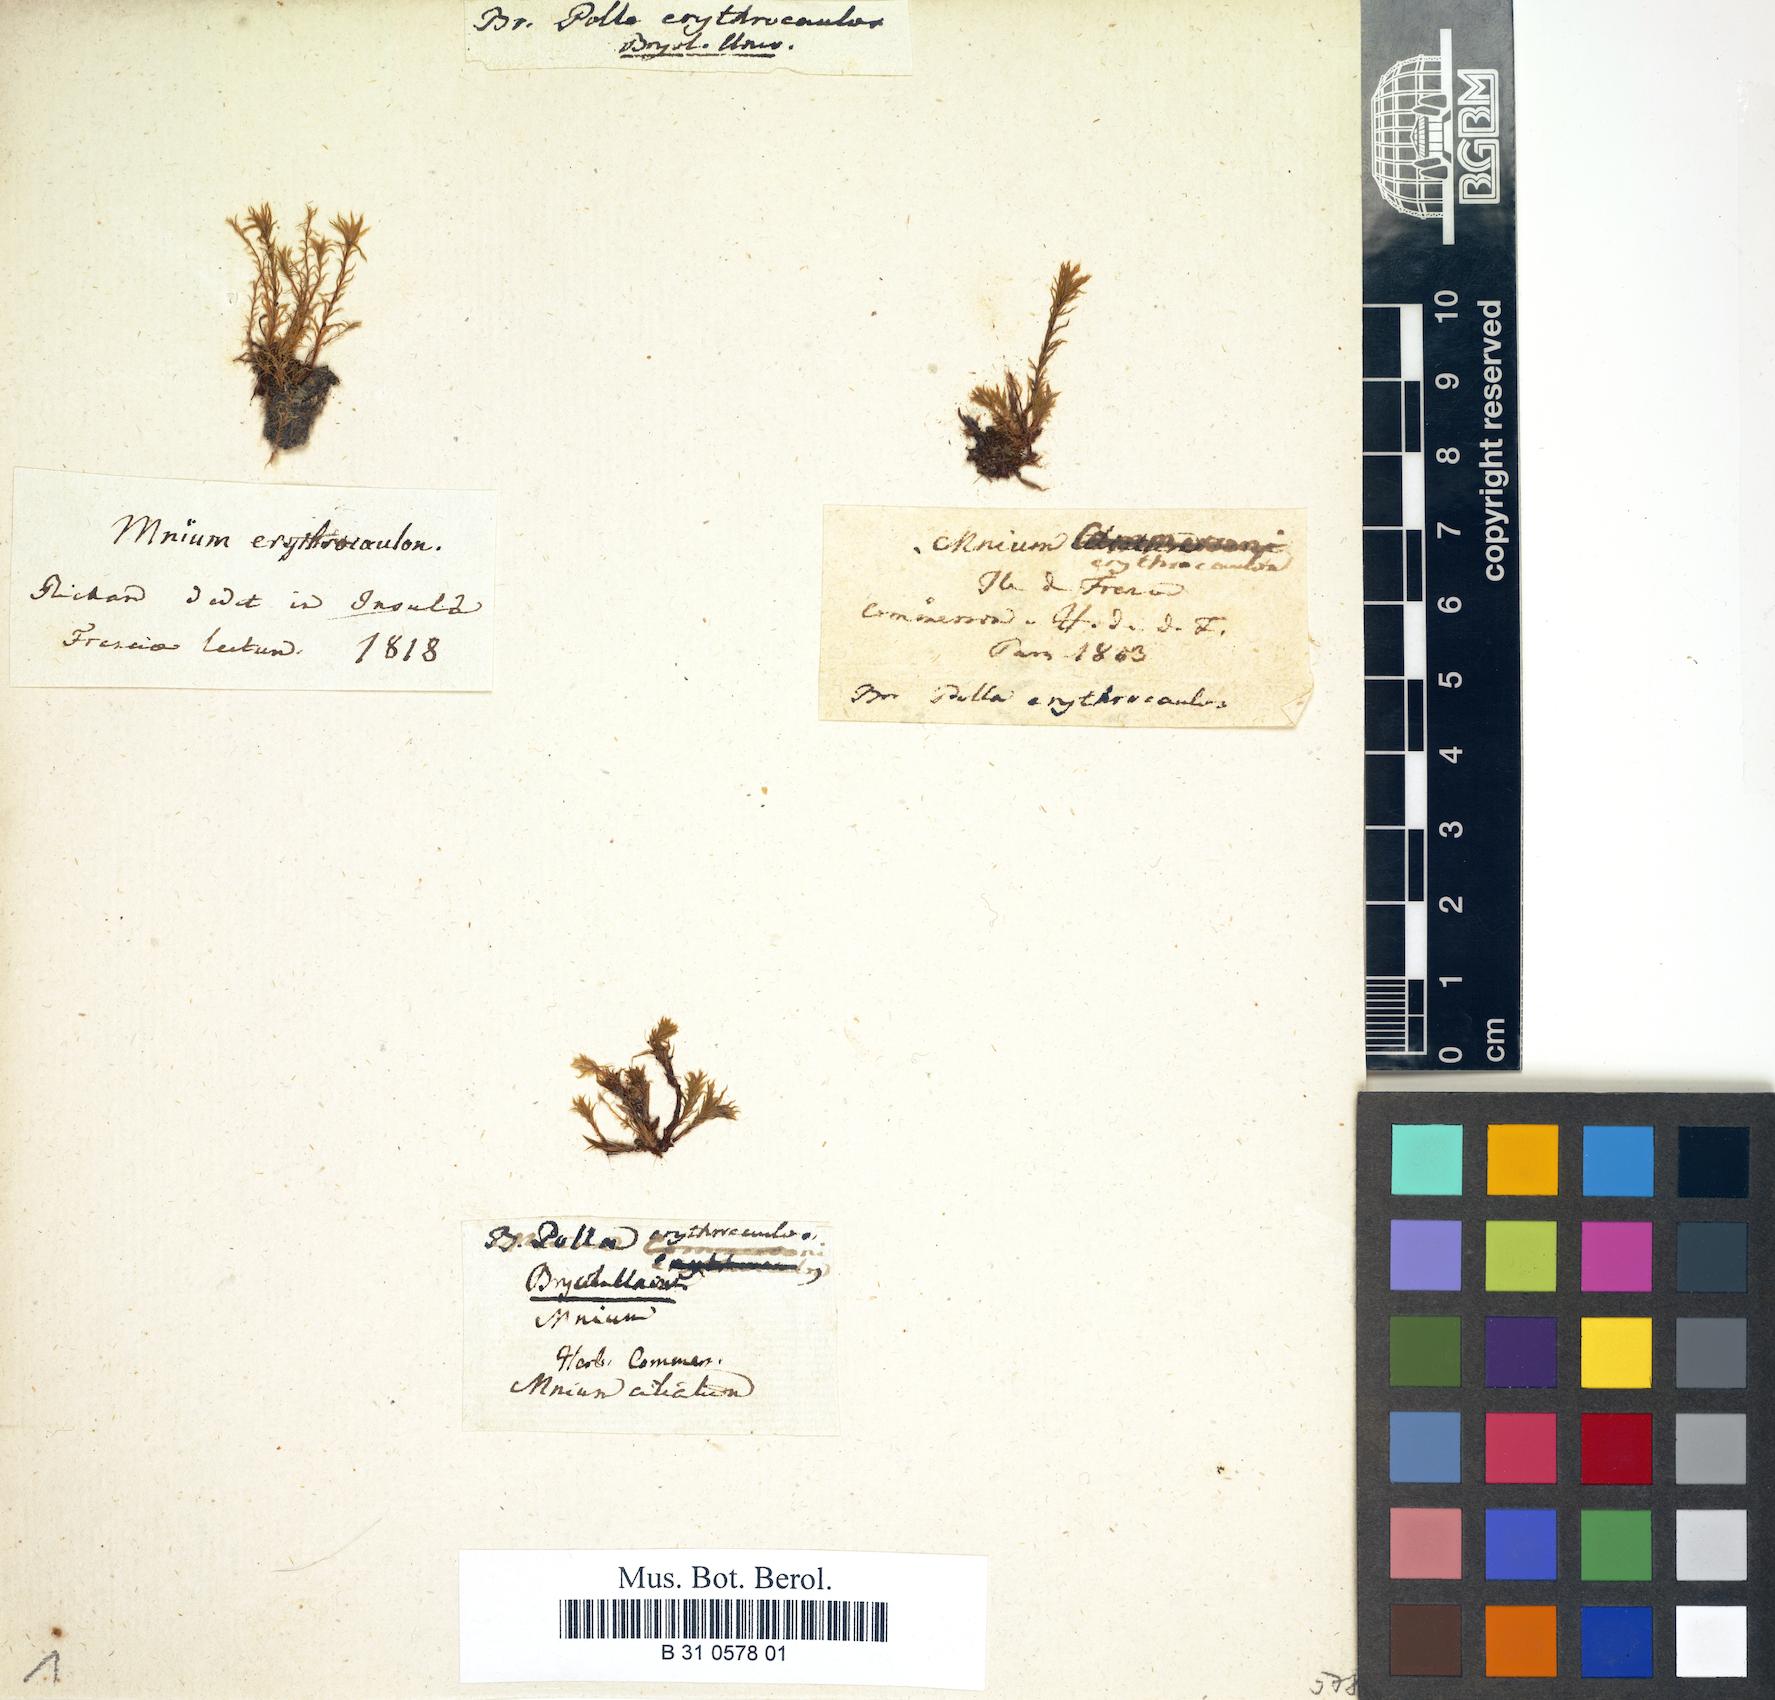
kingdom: Plantae
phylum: Bryophyta
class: Bryopsida
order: Bryales
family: Bryaceae
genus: Rosulabryum
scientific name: Rosulabryum erythrocaulon
